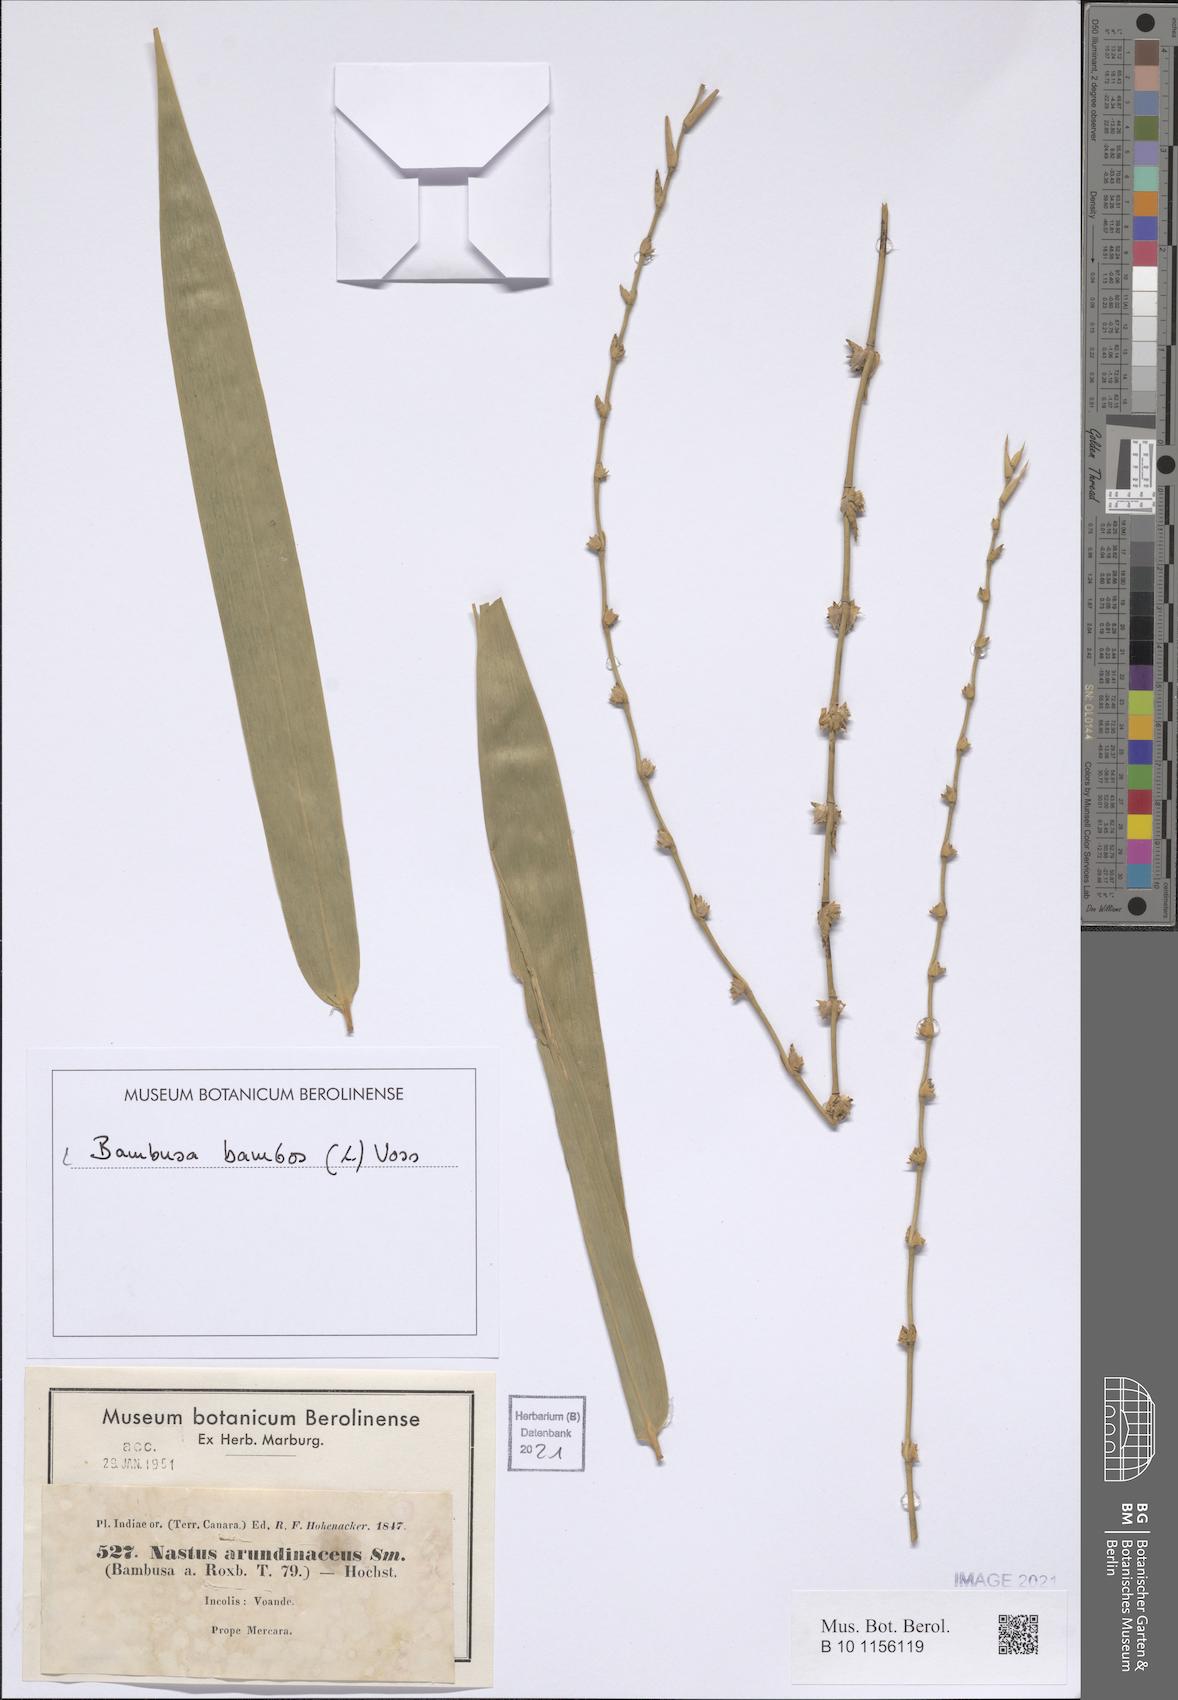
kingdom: Plantae
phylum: Tracheophyta
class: Liliopsida
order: Poales
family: Poaceae
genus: Bambusa
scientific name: Bambusa bambos
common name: Indian thorny bamboo
